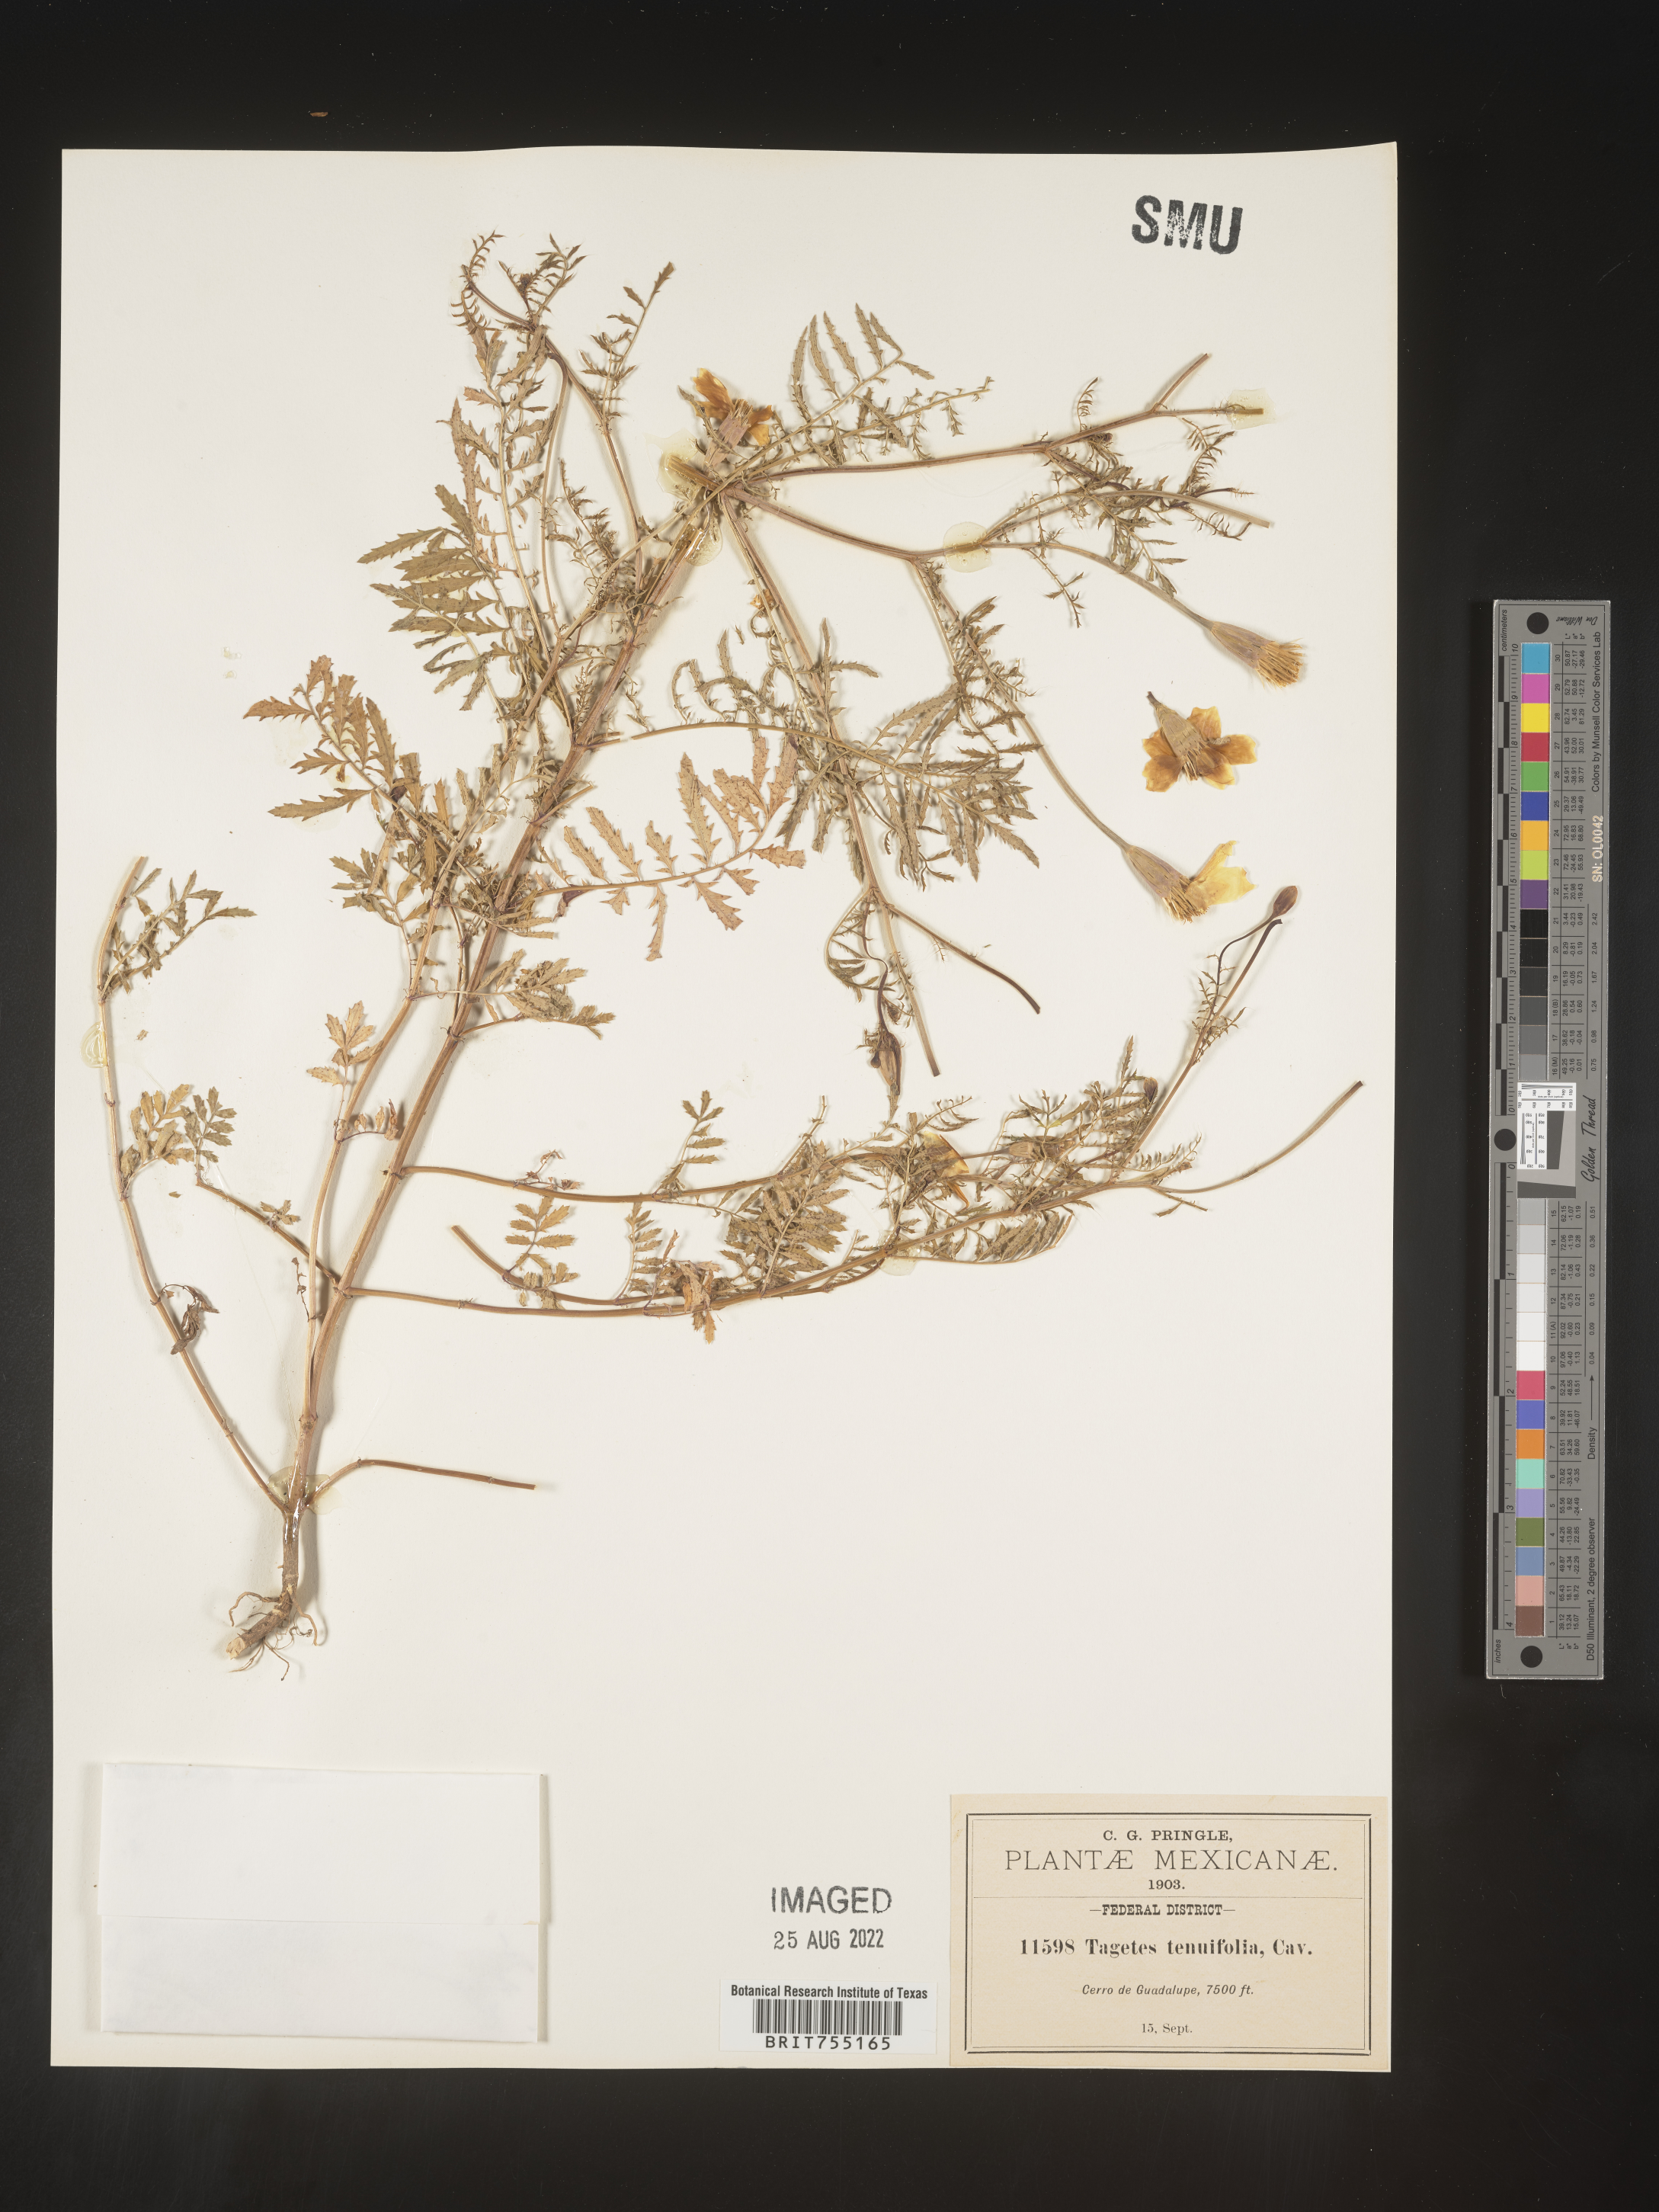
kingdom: Plantae
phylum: Tracheophyta
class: Magnoliopsida
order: Asterales
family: Asteraceae
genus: Tagetes
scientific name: Tagetes
